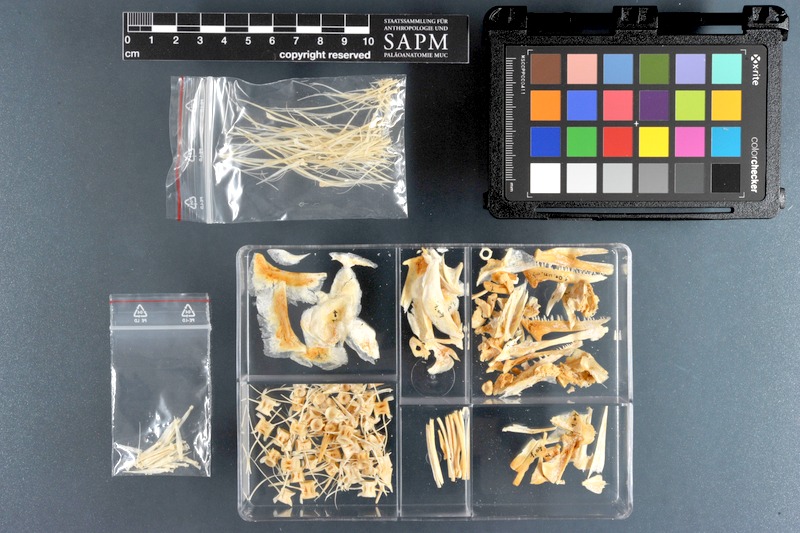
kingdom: Animalia
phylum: Chordata
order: Perciformes
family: Scombridae
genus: Orcynopsis
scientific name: Orcynopsis unicolor
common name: Plain bonito
